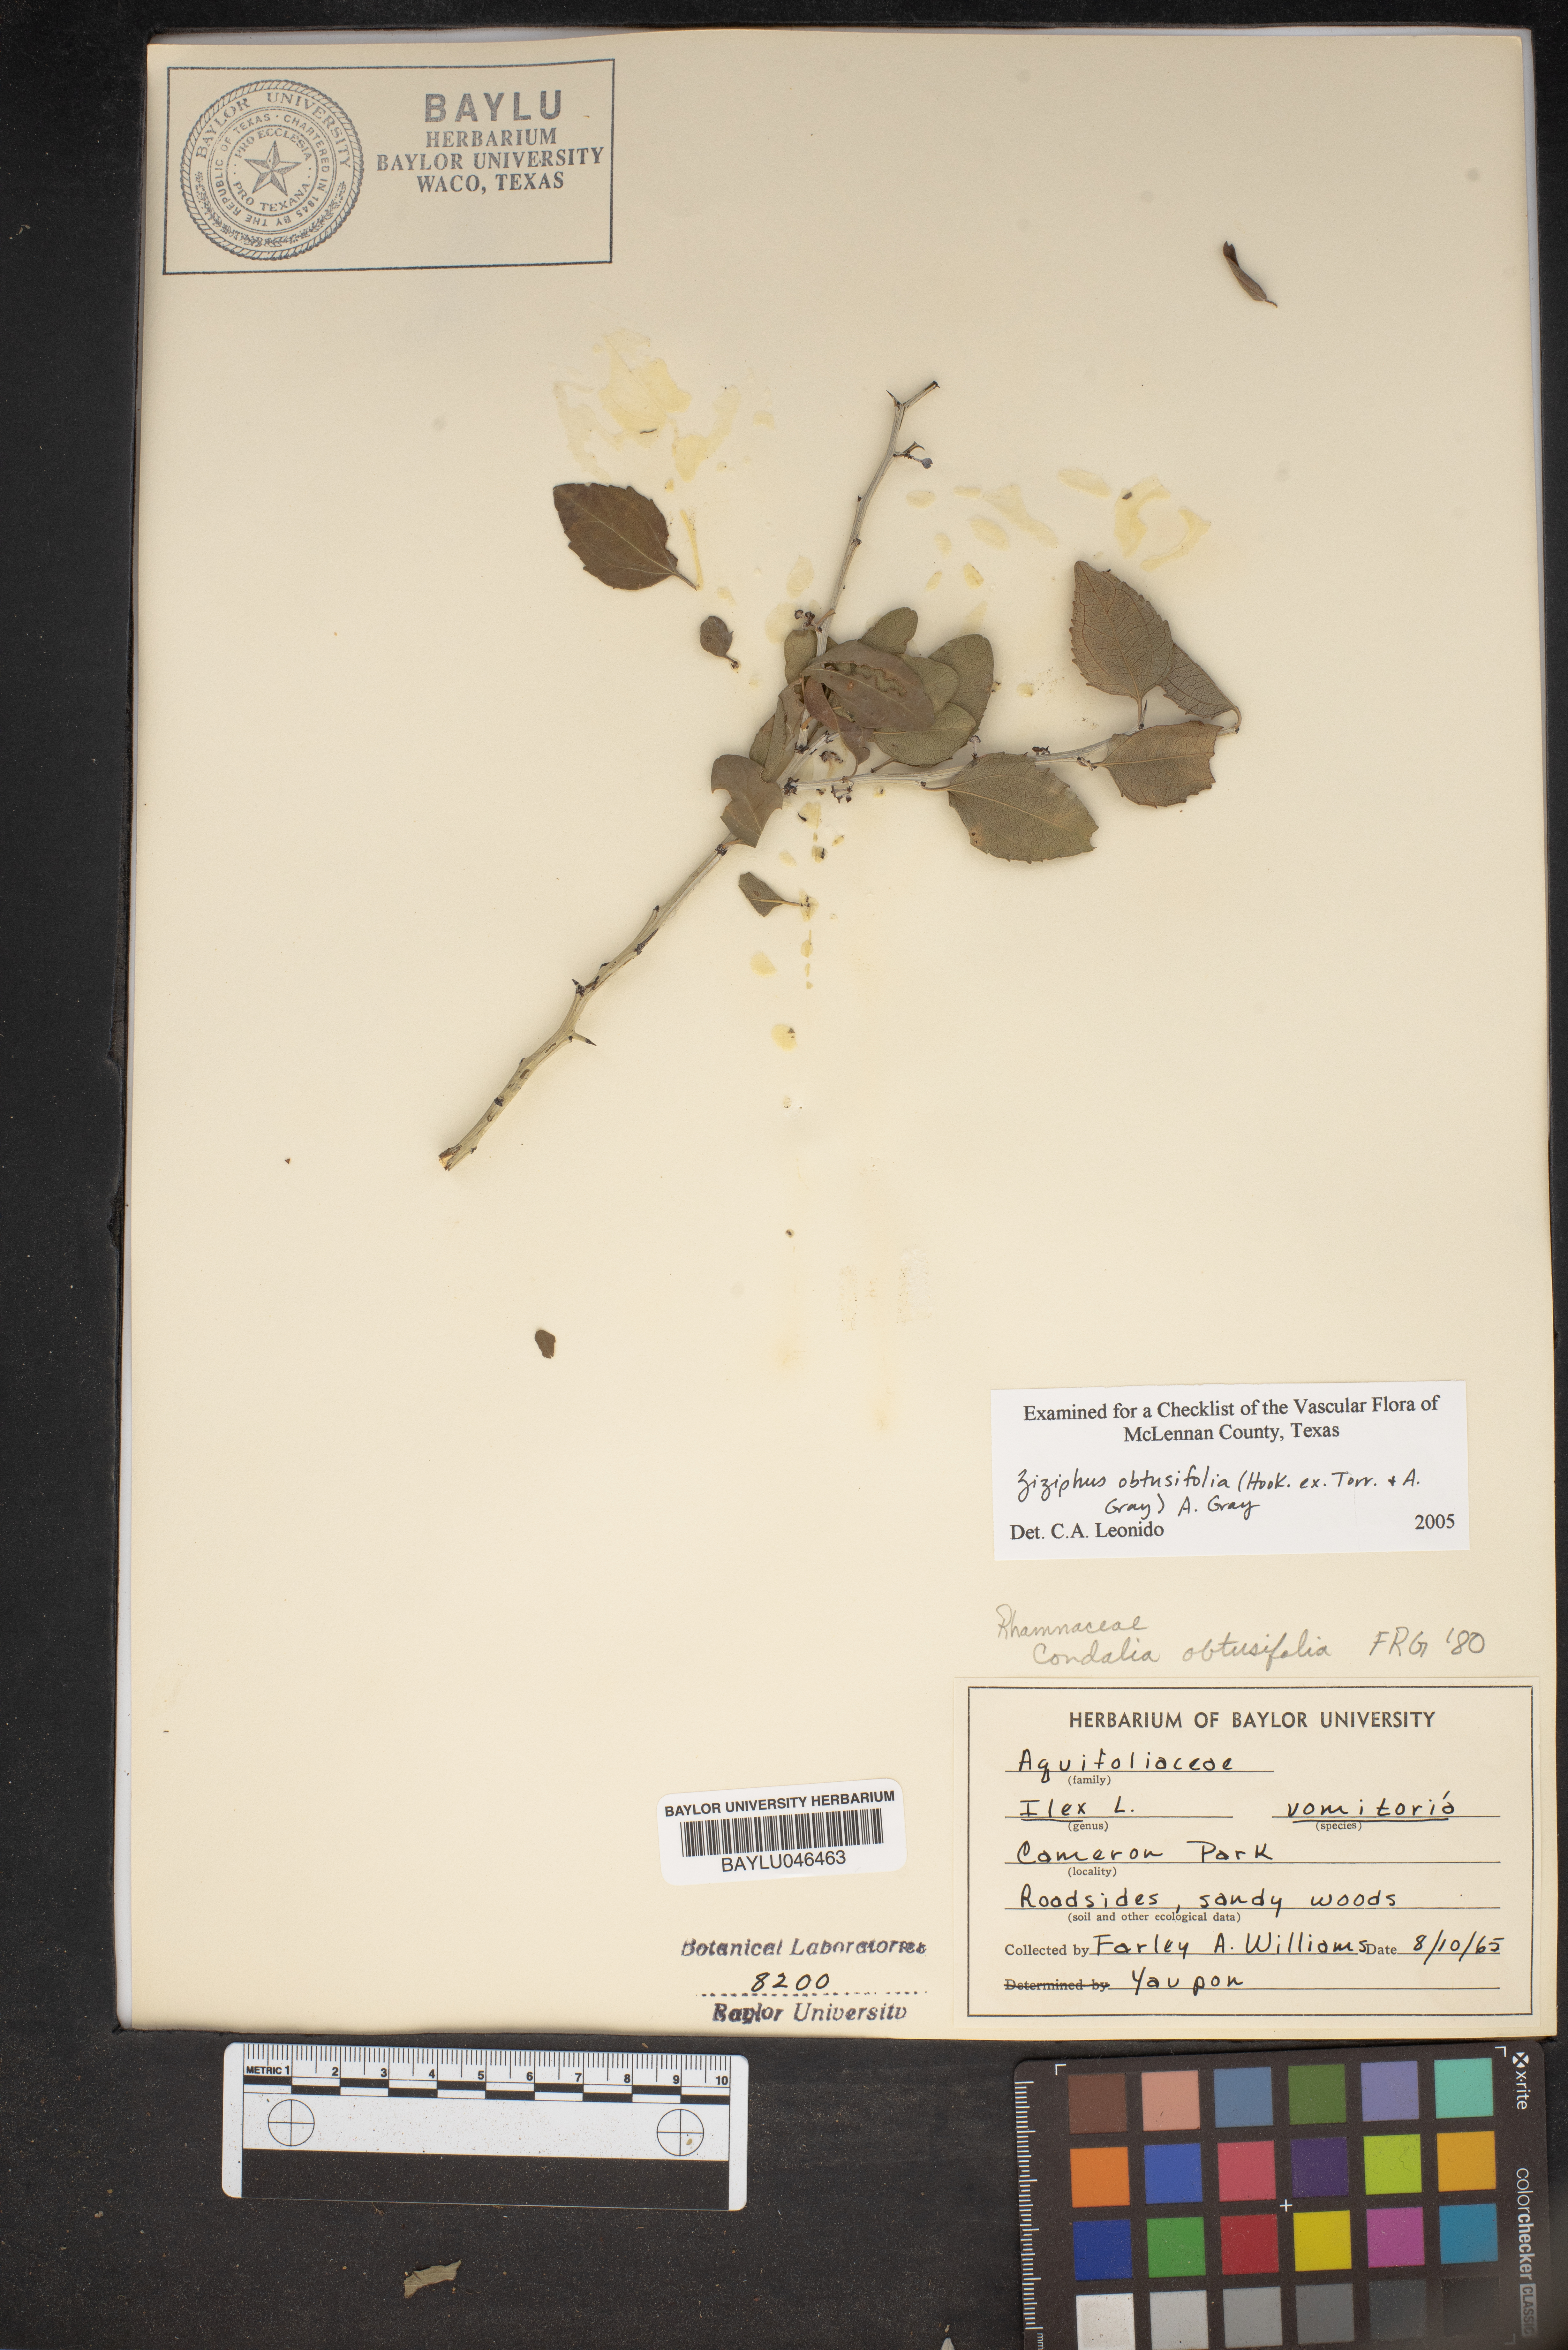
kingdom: Plantae
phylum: Tracheophyta
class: Magnoliopsida
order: Aquifoliales
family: Aquifoliaceae
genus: Ilex
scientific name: Ilex vomitoria
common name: Yaupon holly
